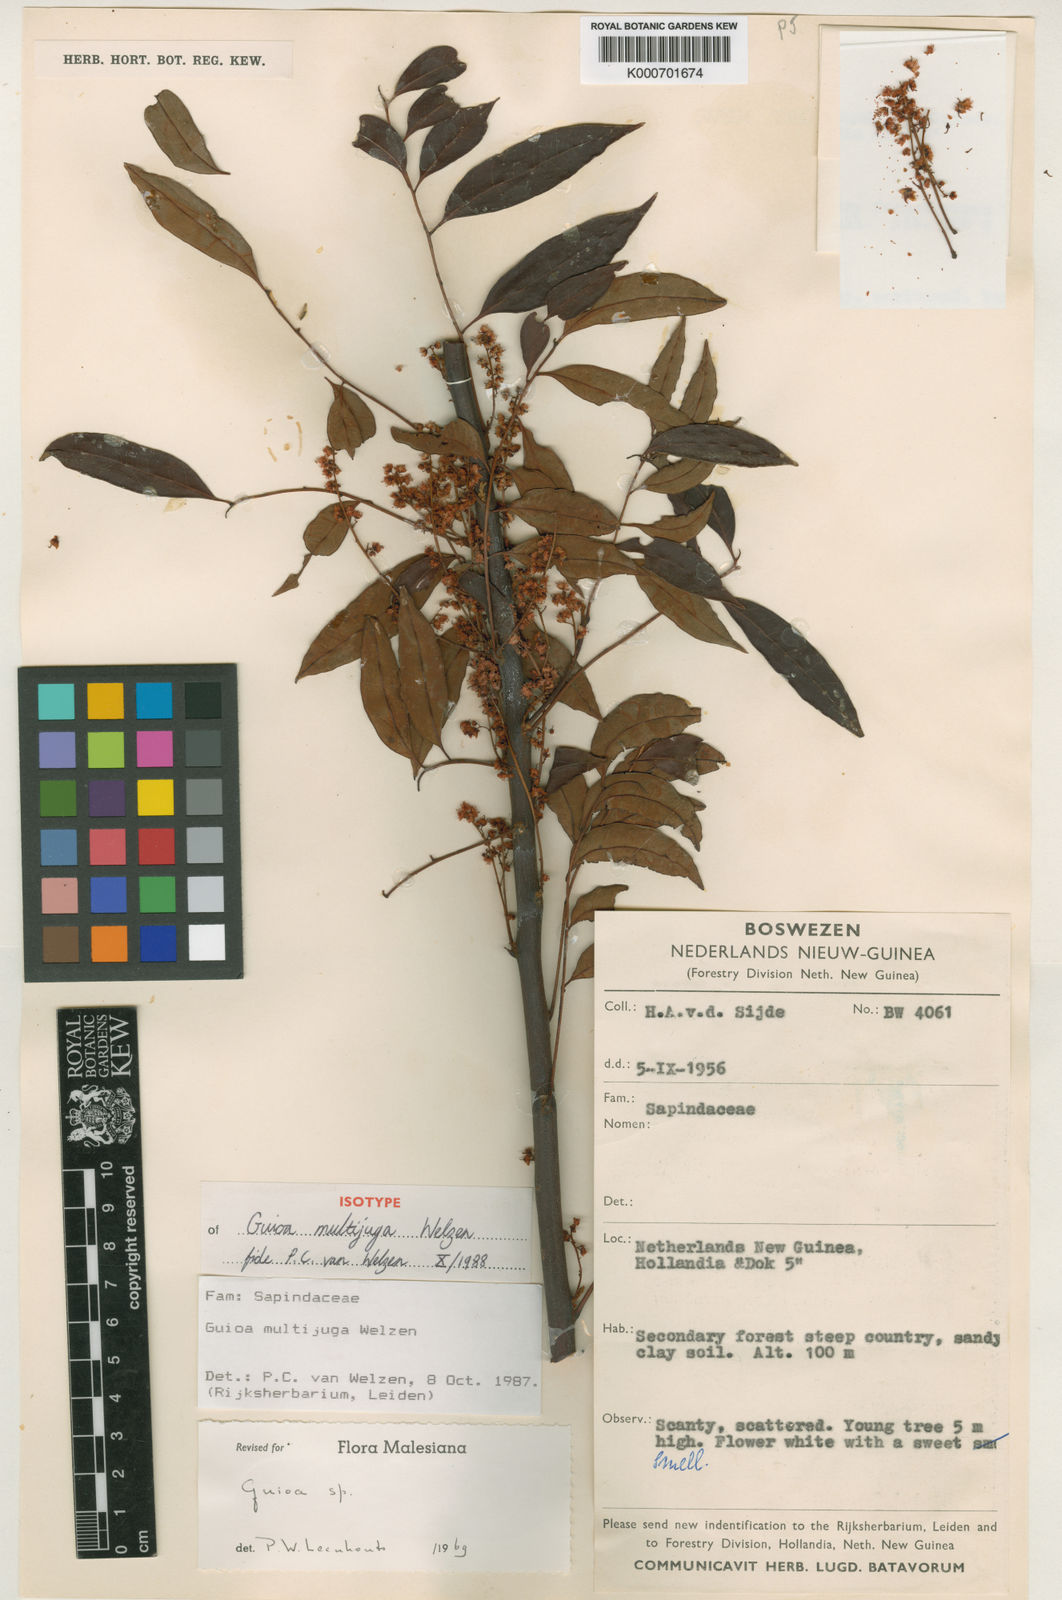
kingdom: Plantae
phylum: Tracheophyta
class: Magnoliopsida
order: Sapindales
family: Sapindaceae
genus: Guioa
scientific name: Guioa multijuga
